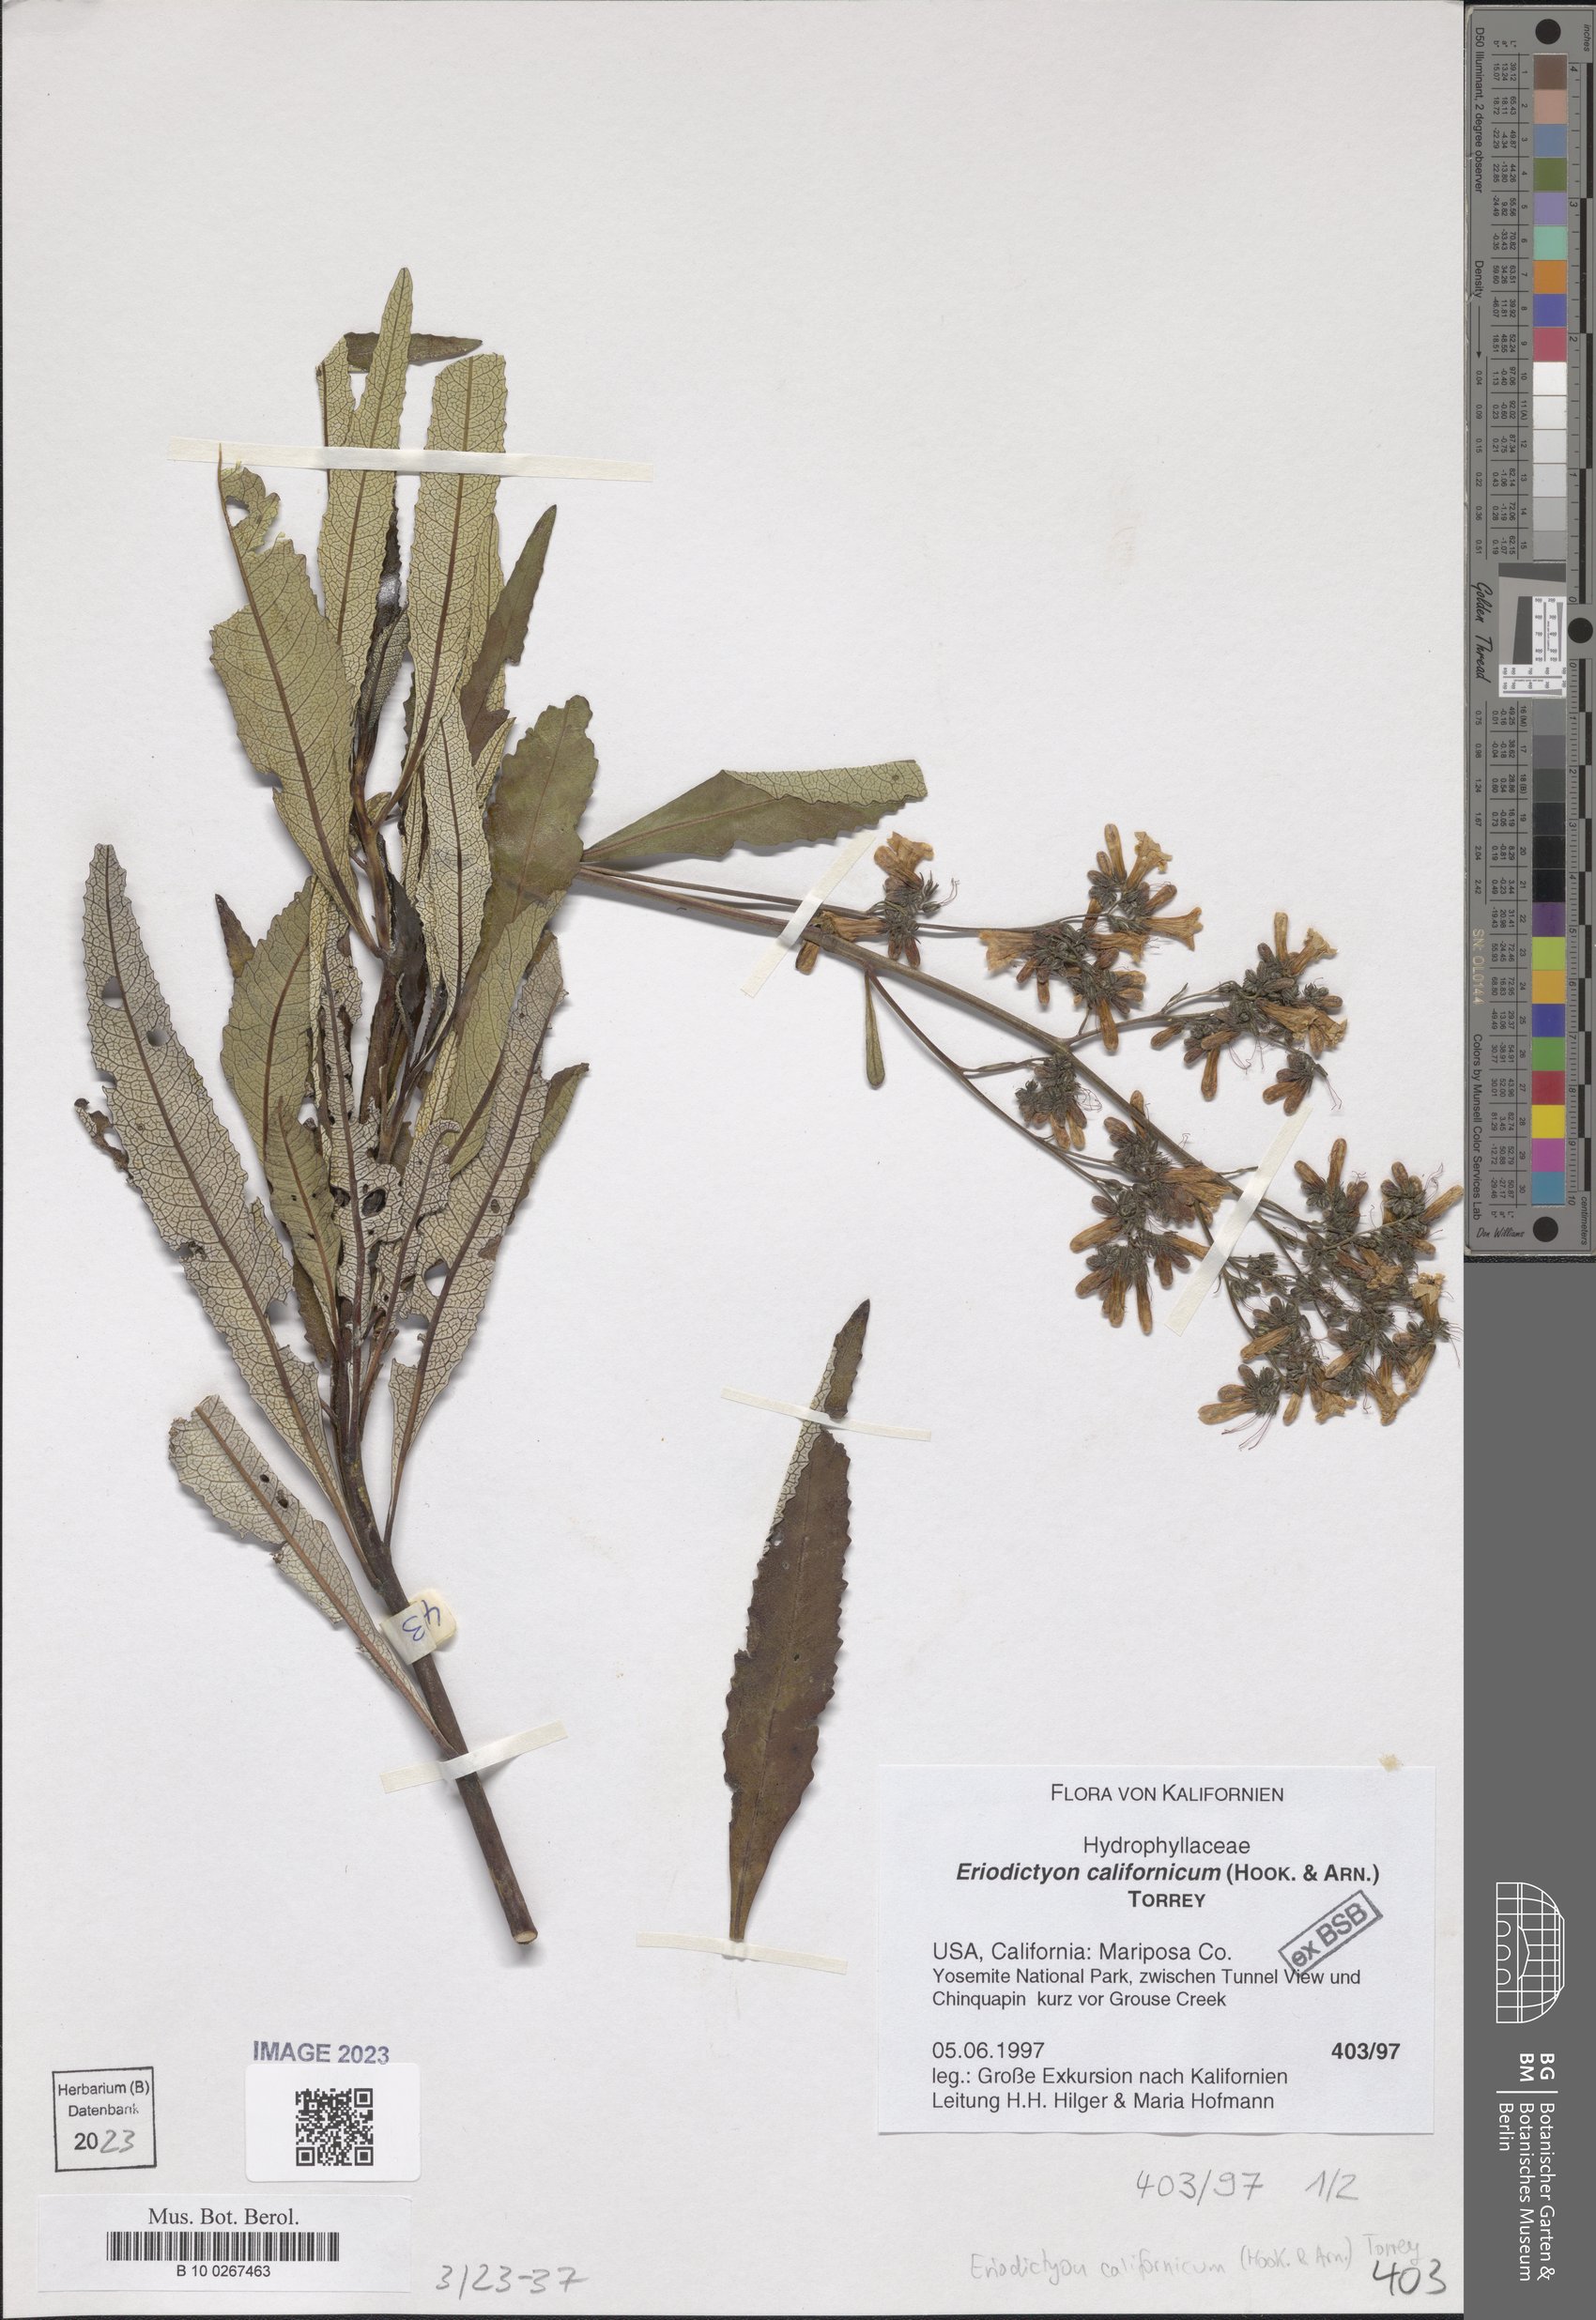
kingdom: Plantae
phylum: Tracheophyta
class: Magnoliopsida
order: Boraginales
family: Namaceae
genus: Eriodictyon
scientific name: Eriodictyon crassifolium
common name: Thick-leaf yerba-santa
